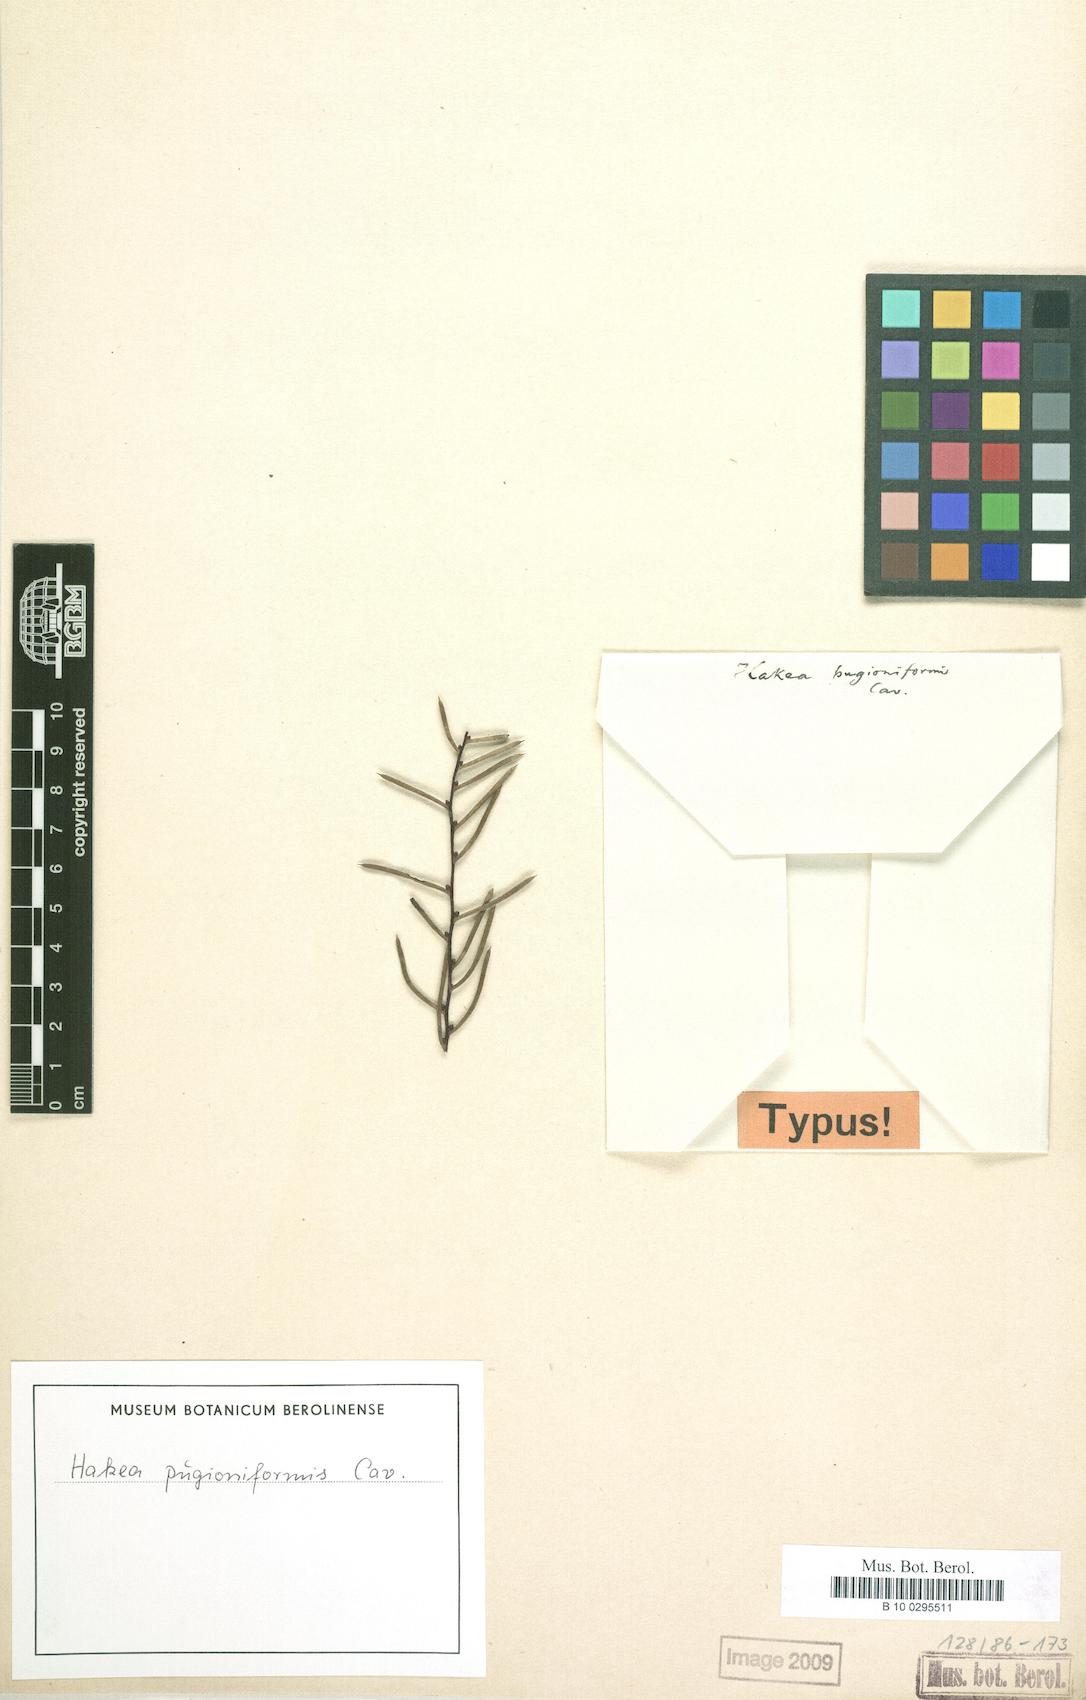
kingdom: Plantae
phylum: Tracheophyta
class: Magnoliopsida
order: Proteales
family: Proteaceae
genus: Hakea
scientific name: Hakea teretifolia
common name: Dagger hakea
